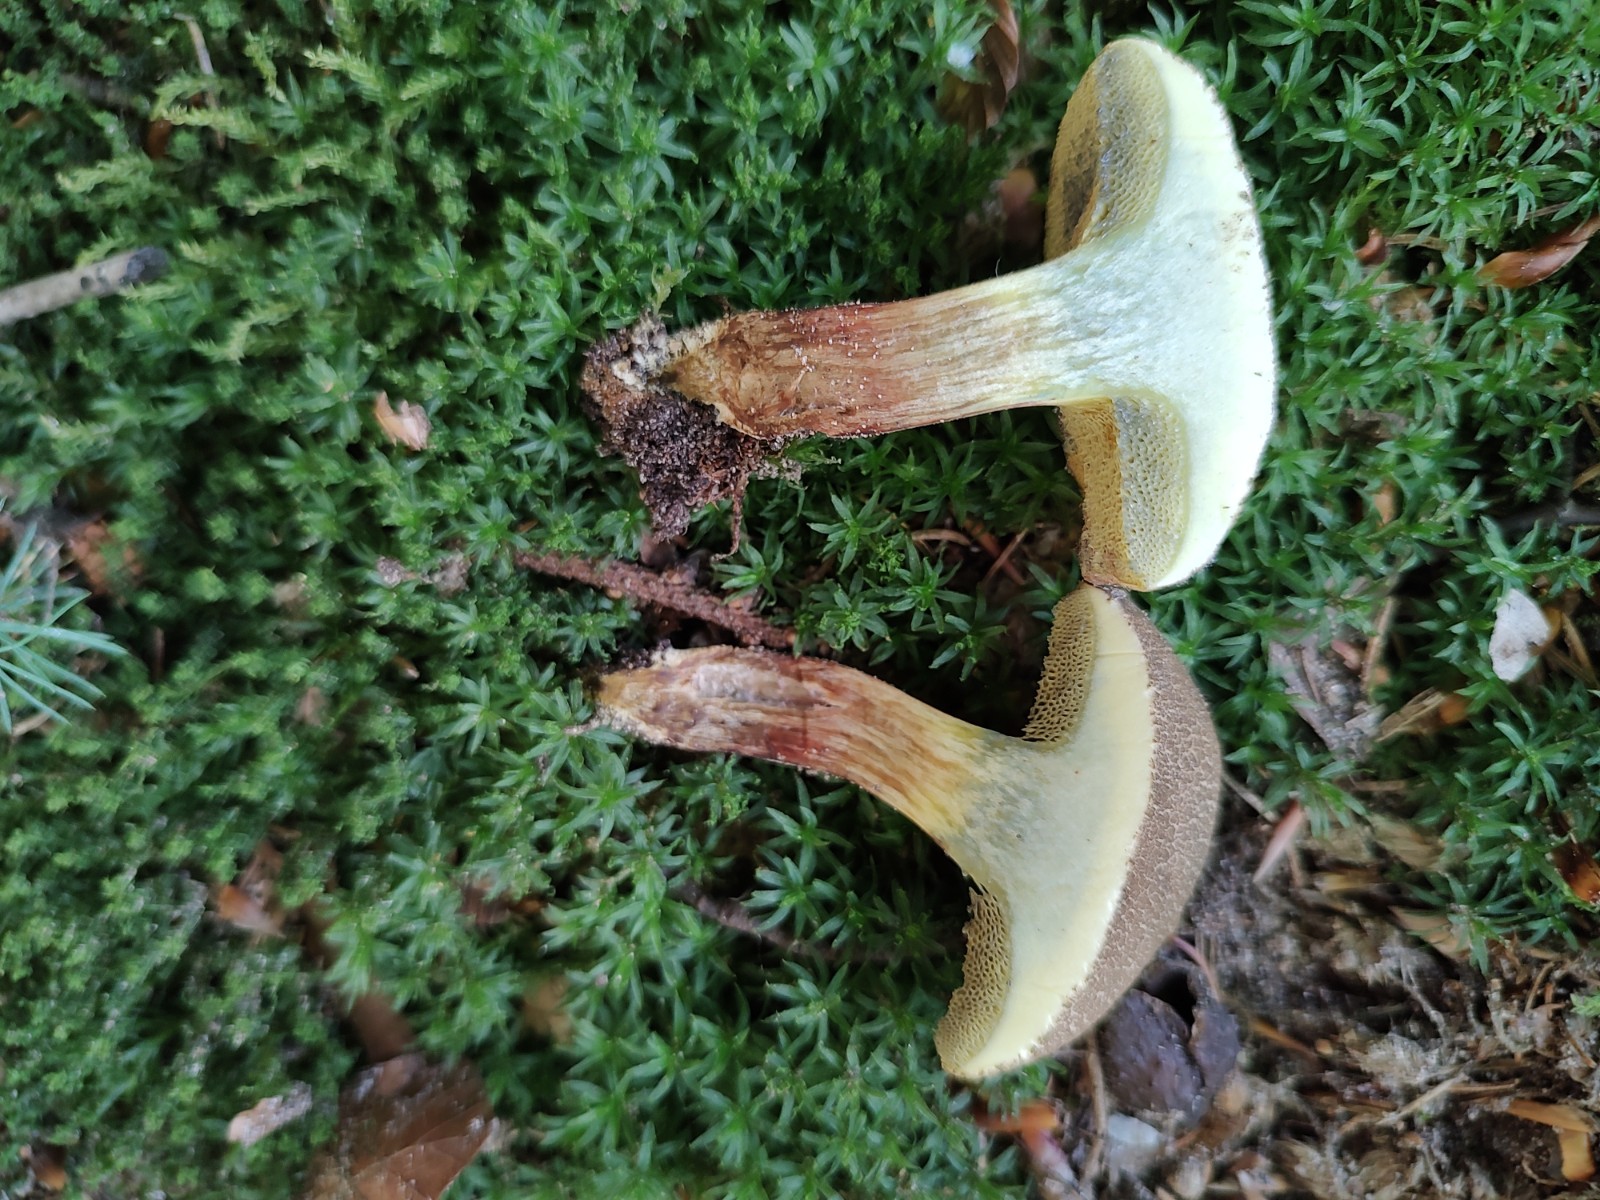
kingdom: Fungi
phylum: Basidiomycota
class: Agaricomycetes
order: Boletales
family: Boletaceae
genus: Xerocomellus
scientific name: Xerocomellus porosporus
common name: hvidsprukken rørhat
